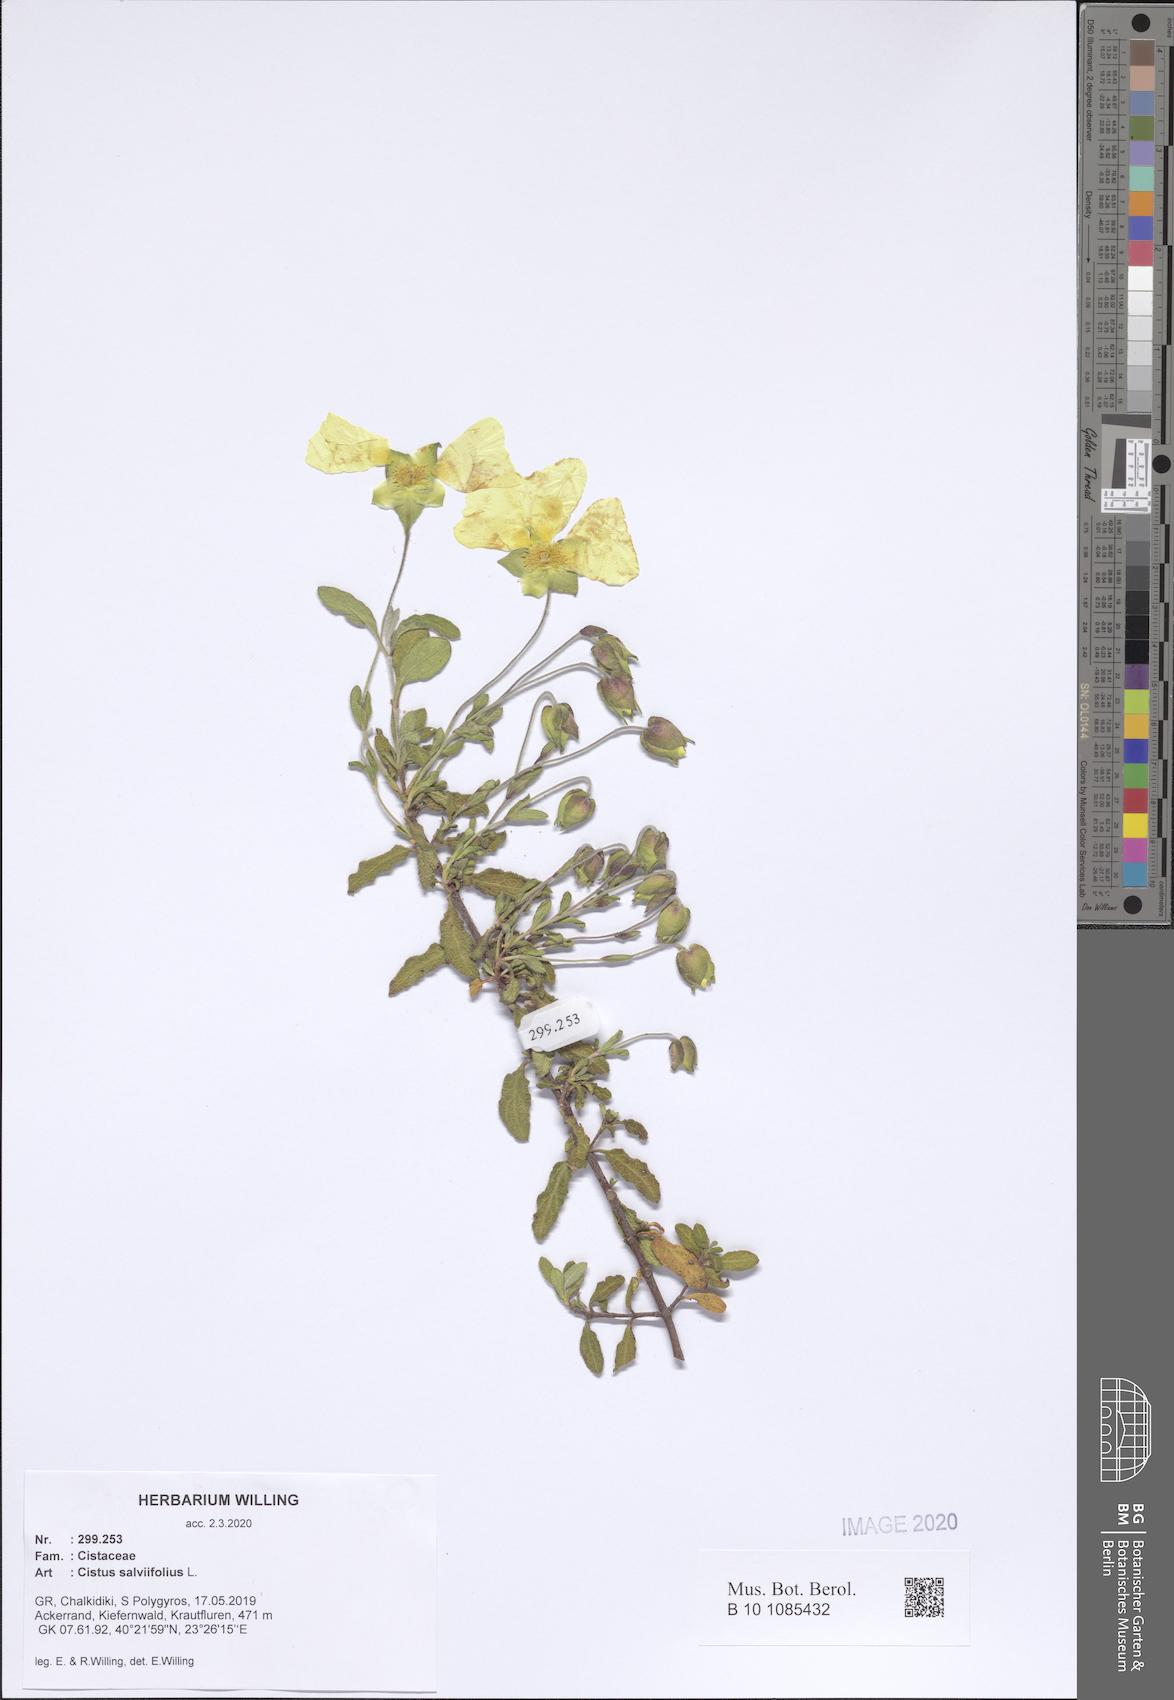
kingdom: Plantae
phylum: Tracheophyta
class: Magnoliopsida
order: Malvales
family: Cistaceae
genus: Cistus
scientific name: Cistus salviifolius
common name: Salvia cistus
